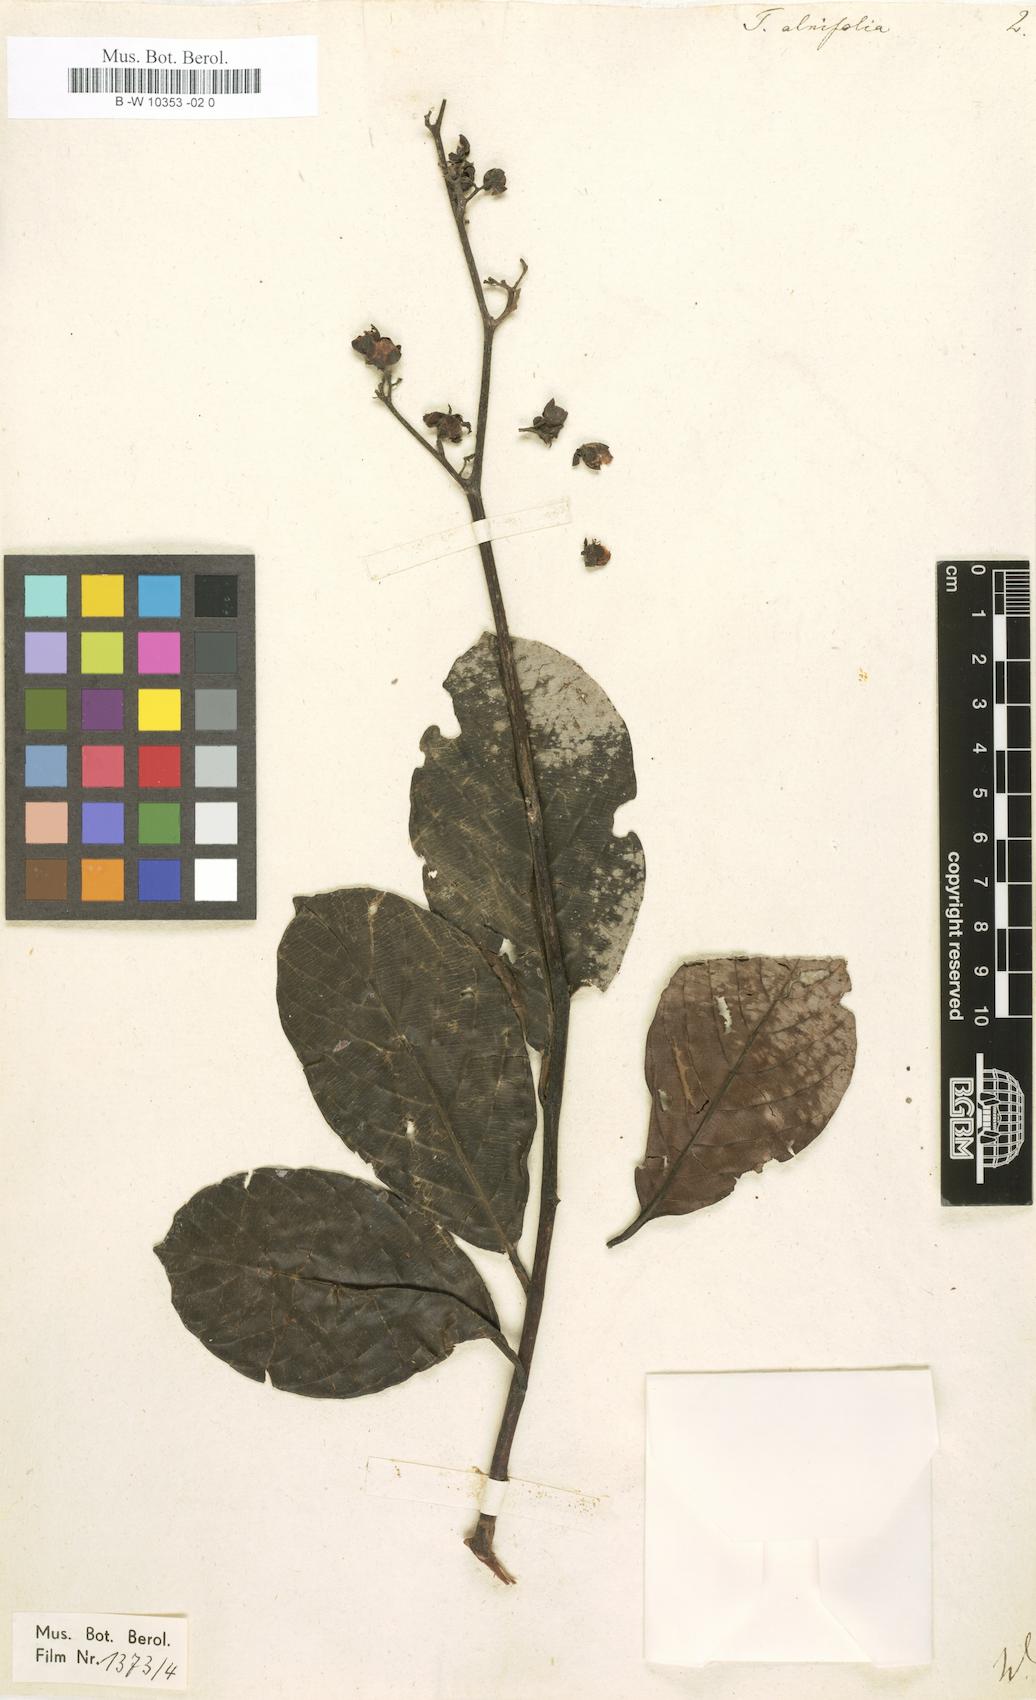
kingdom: Plantae
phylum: Tracheophyta
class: Magnoliopsida
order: Dilleniales
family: Dilleniaceae
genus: Tetracera
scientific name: Tetracera alnifolia
